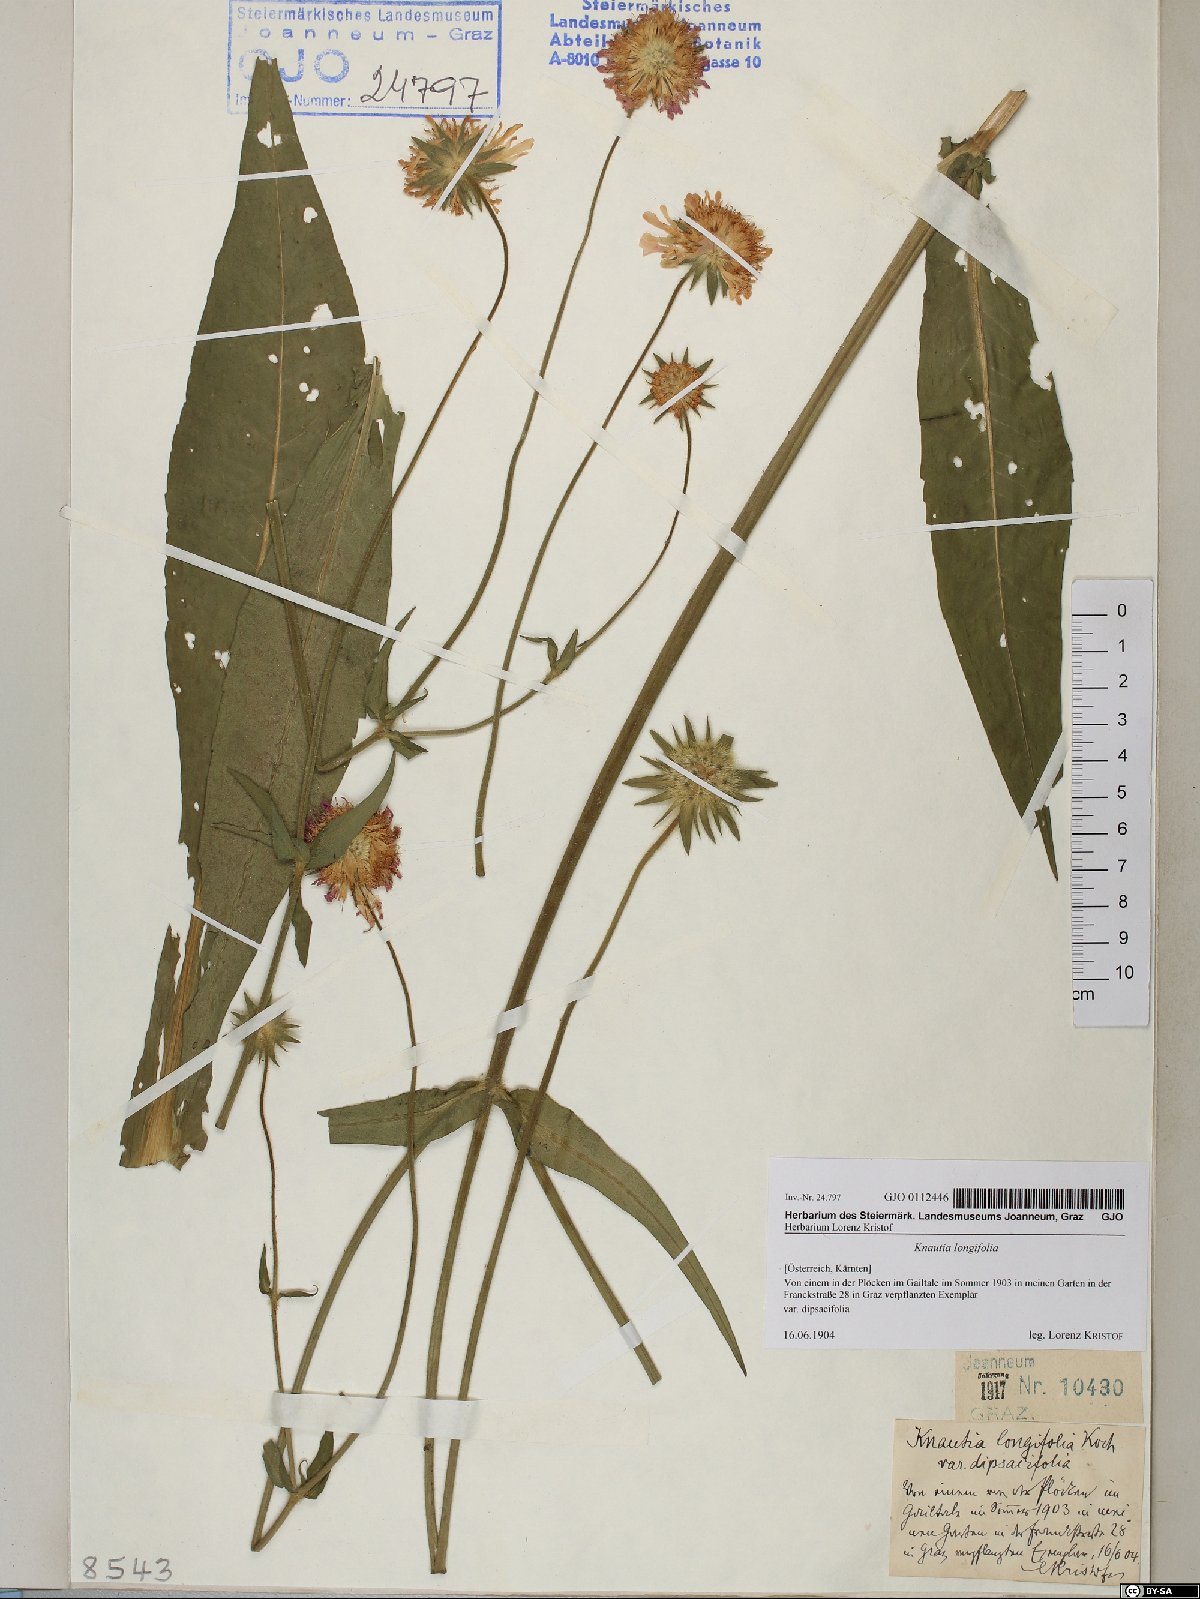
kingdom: Plantae
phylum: Tracheophyta
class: Magnoliopsida
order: Dipsacales
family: Caprifoliaceae
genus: Knautia
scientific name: Knautia longifolia
